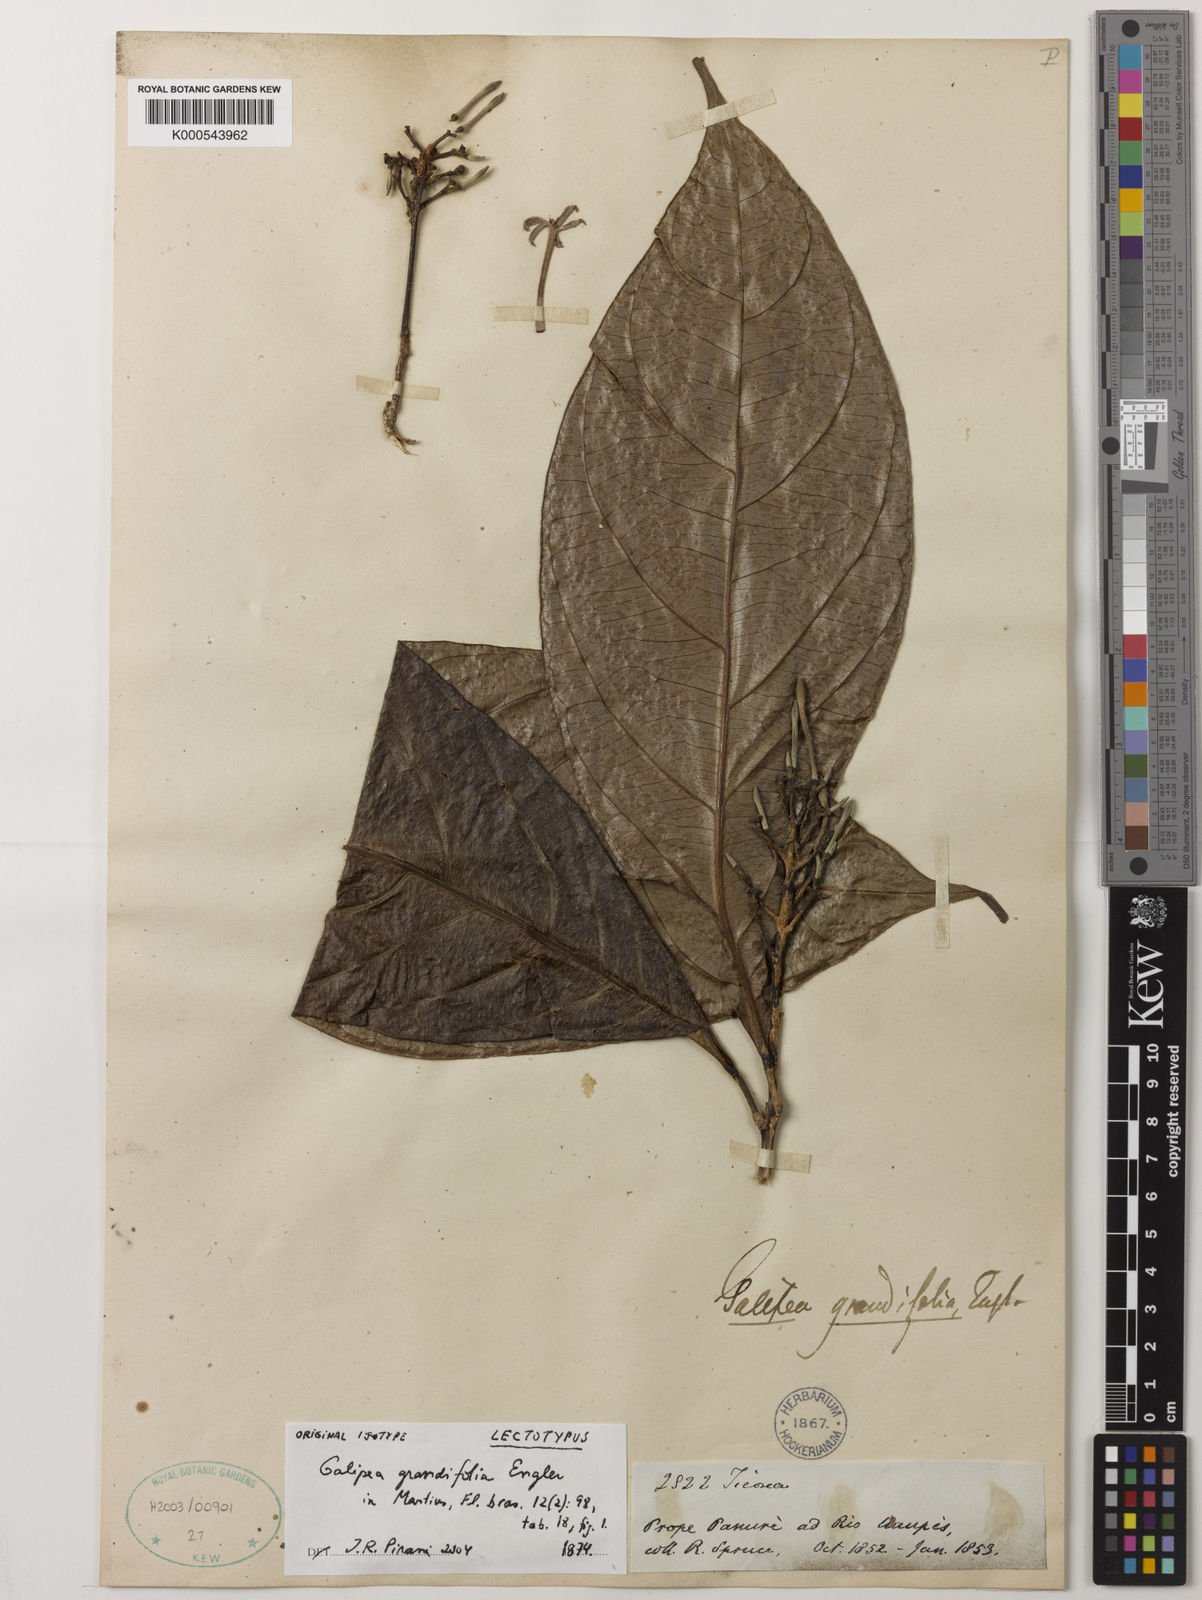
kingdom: Plantae
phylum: Tracheophyta
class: Magnoliopsida
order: Sapindales
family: Rutaceae
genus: Galipea
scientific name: Galipea grandifolia
